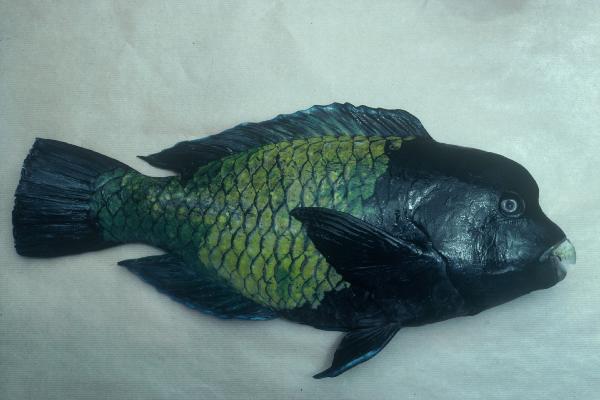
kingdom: Animalia
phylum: Chordata
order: Perciformes
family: Scaridae
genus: Chlorurus
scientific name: Chlorurus cyanescens
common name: Blue humphead parrotfish
